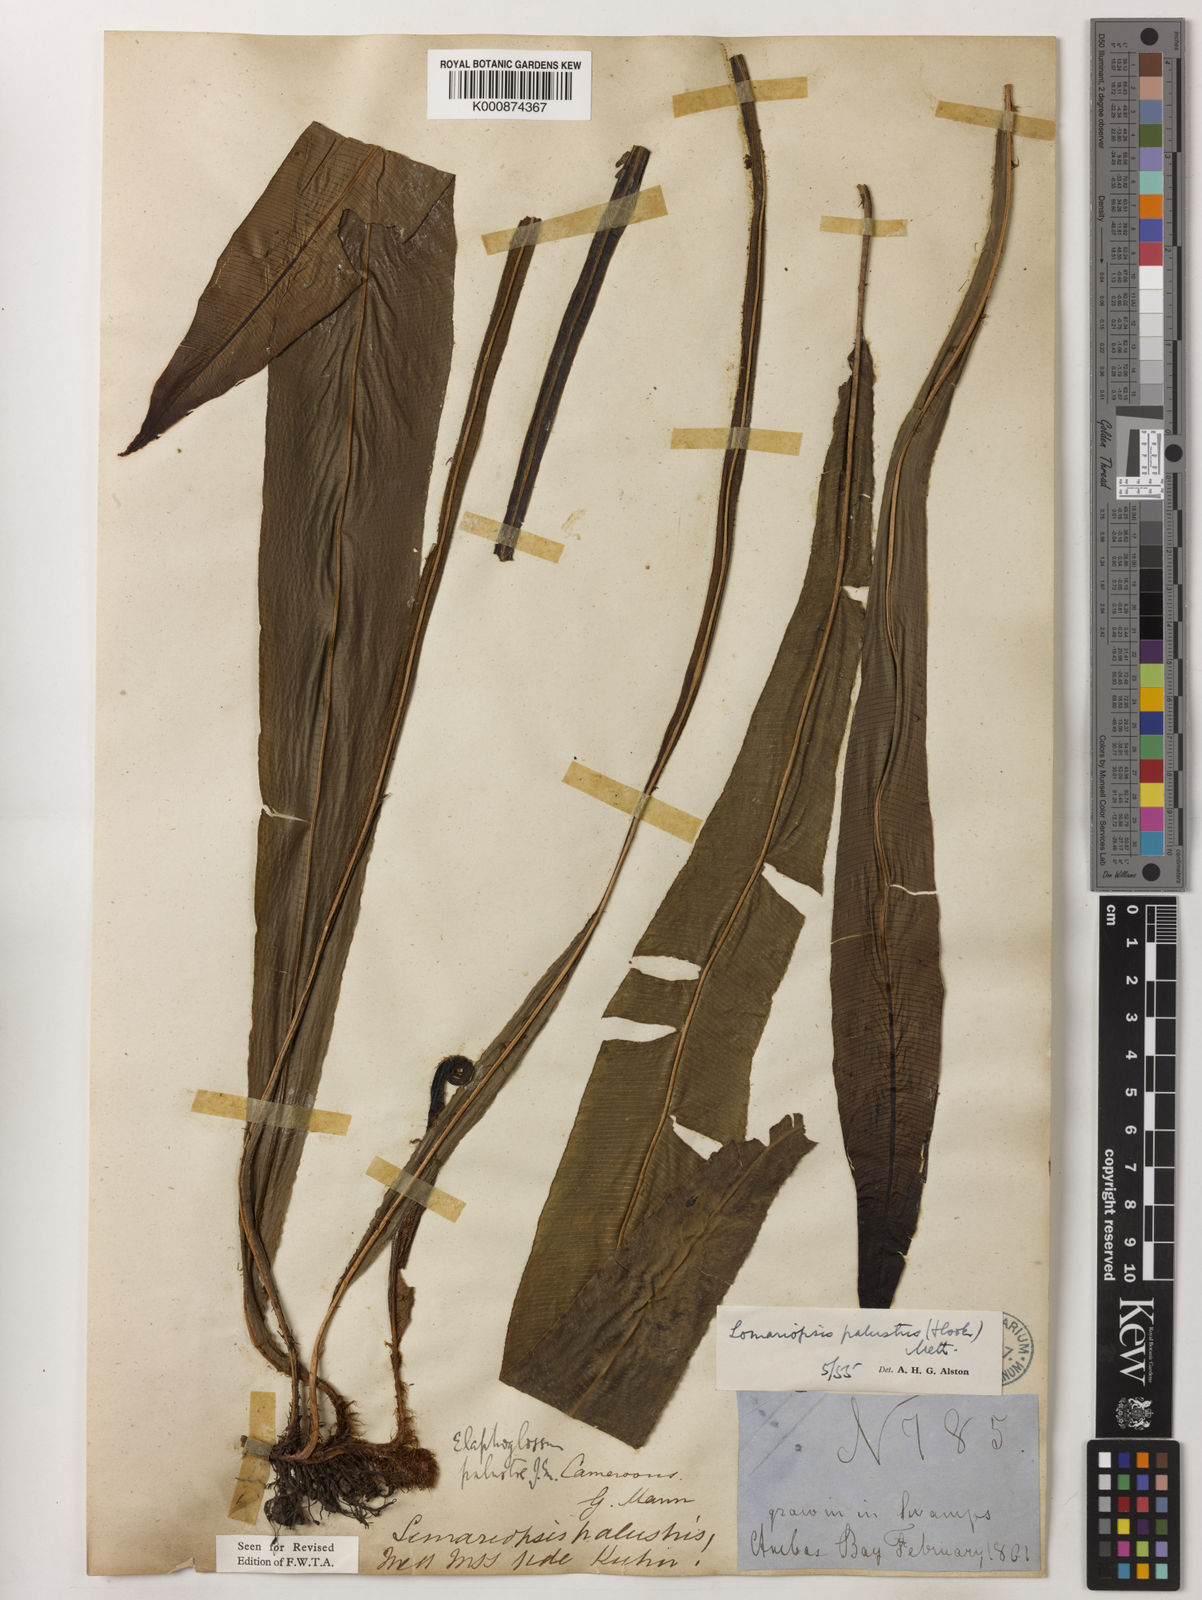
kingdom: Plantae
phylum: Tracheophyta
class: Polypodiopsida
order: Polypodiales
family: Lomariopsidaceae
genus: Lomariopsis
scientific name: Lomariopsis
